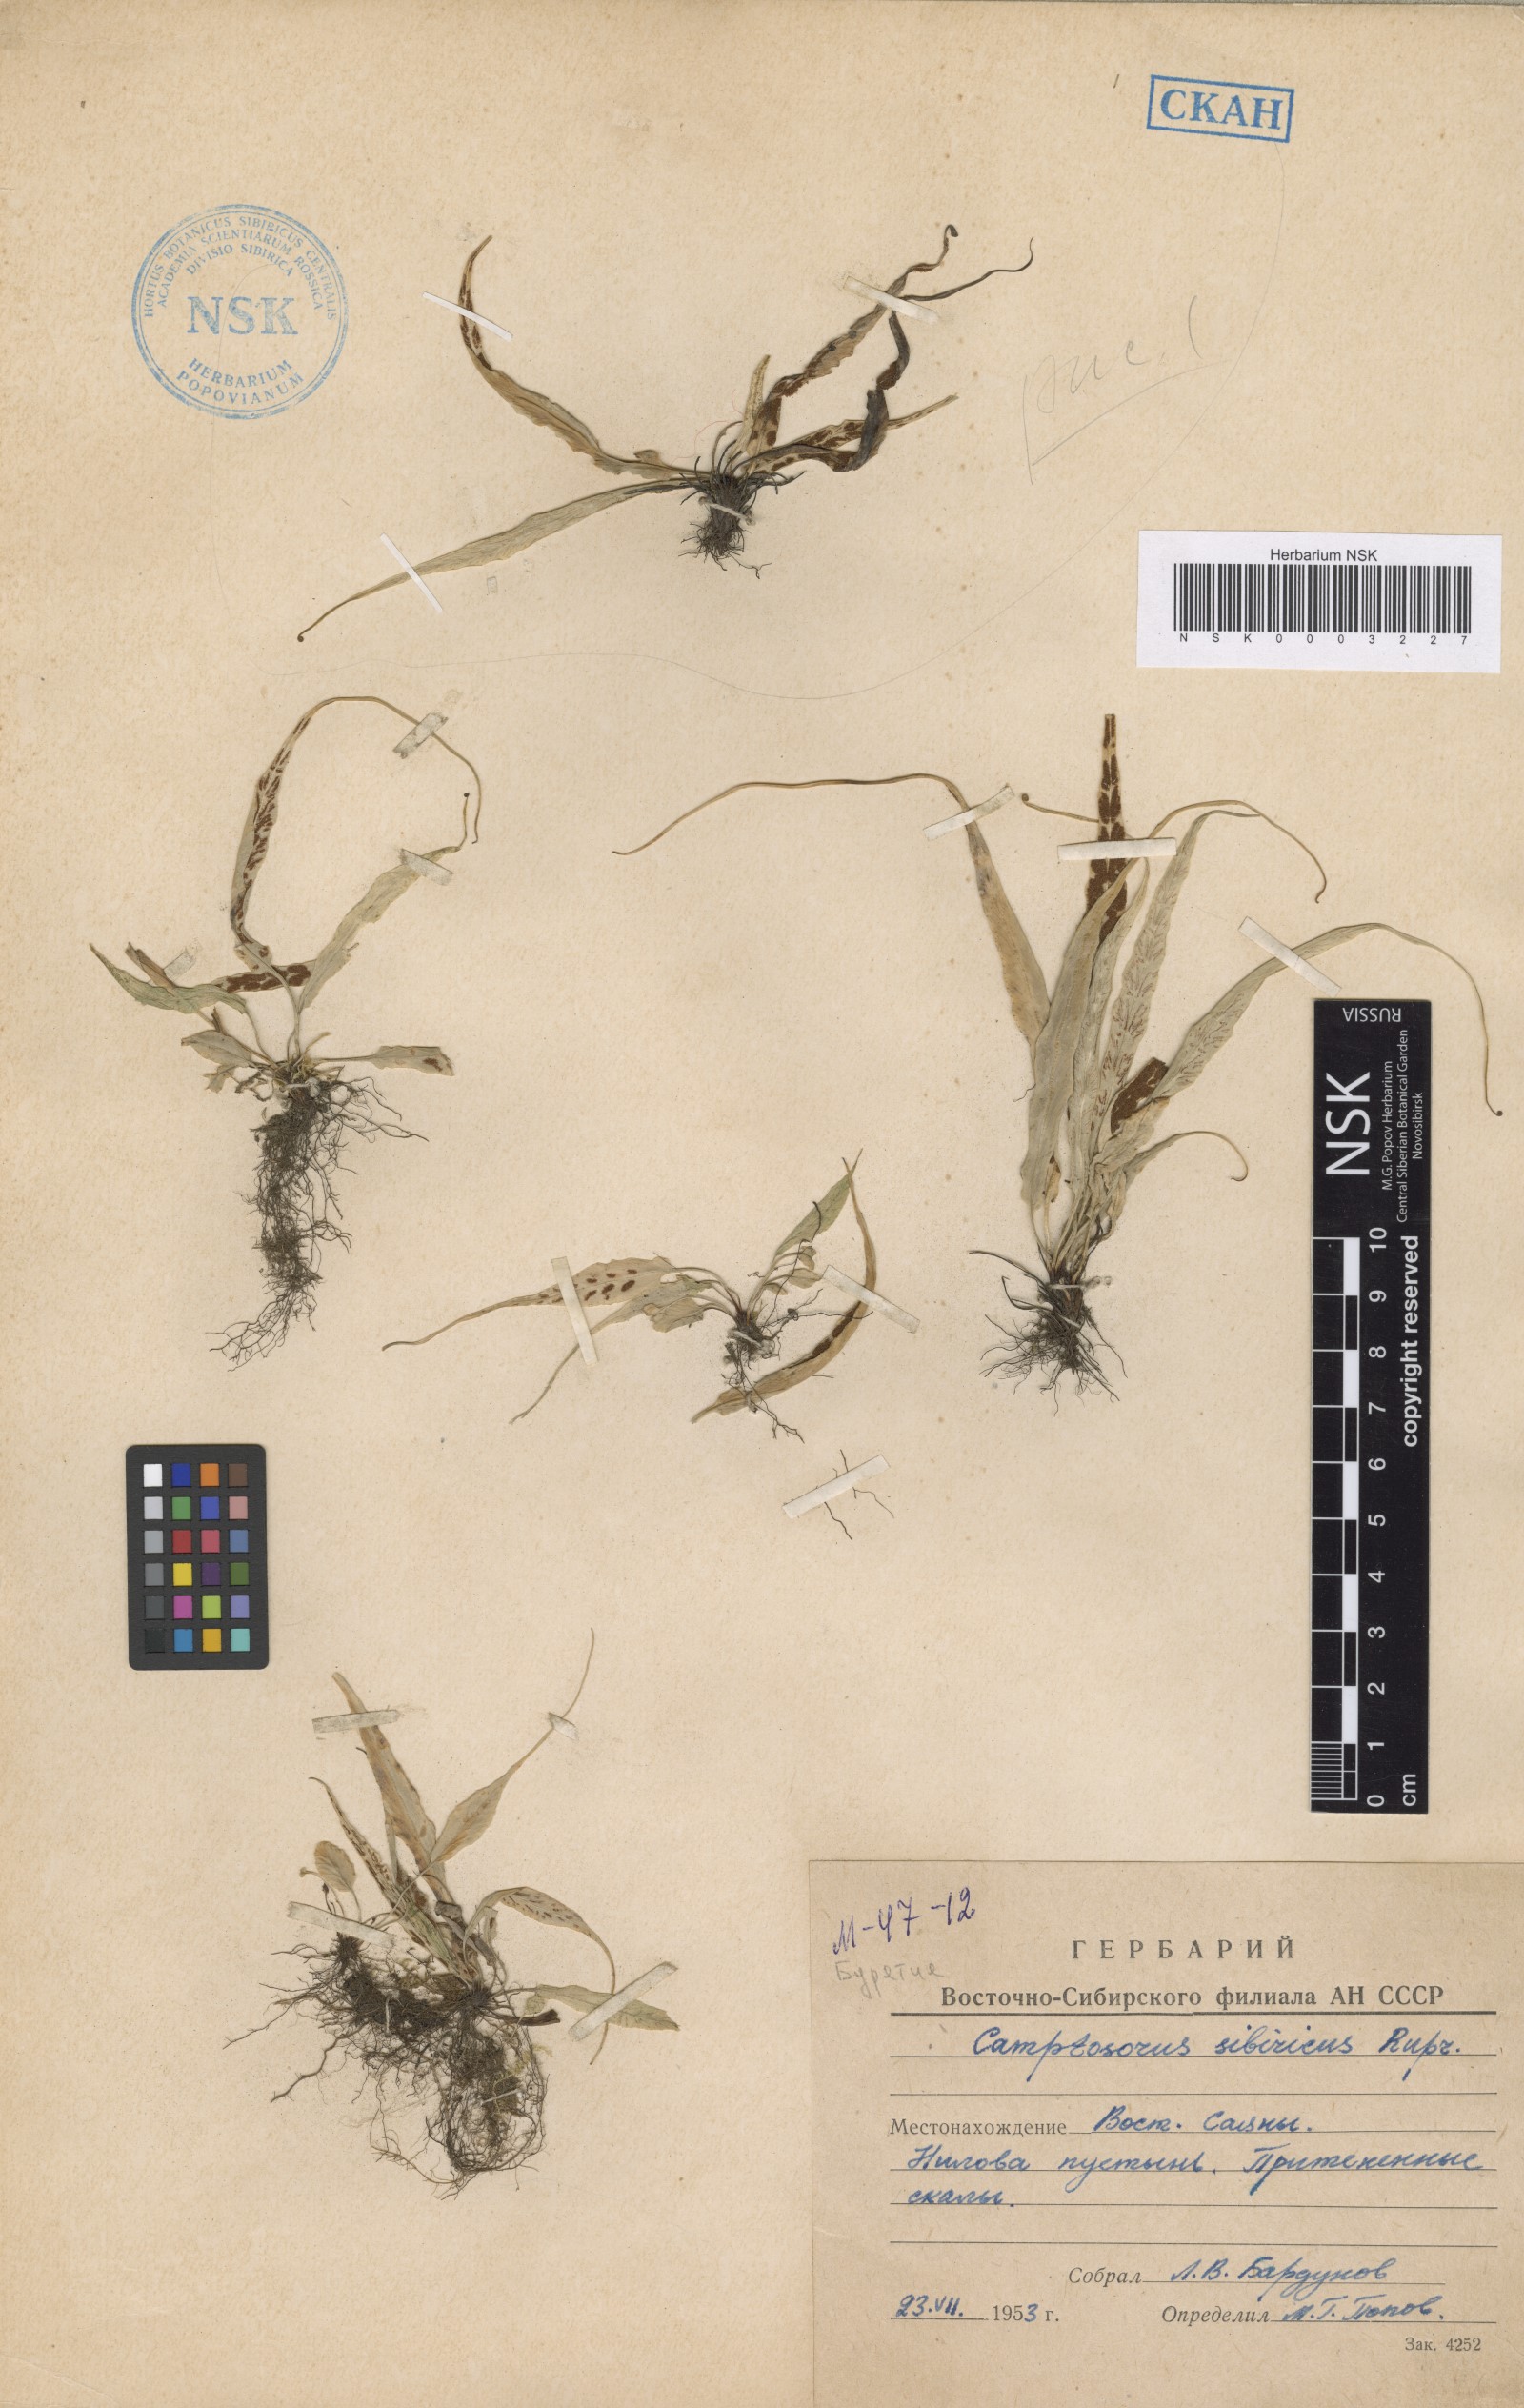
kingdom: Plantae
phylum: Tracheophyta
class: Polypodiopsida
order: Polypodiales
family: Aspleniaceae
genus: Asplenium
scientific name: Asplenium ruprechtii
